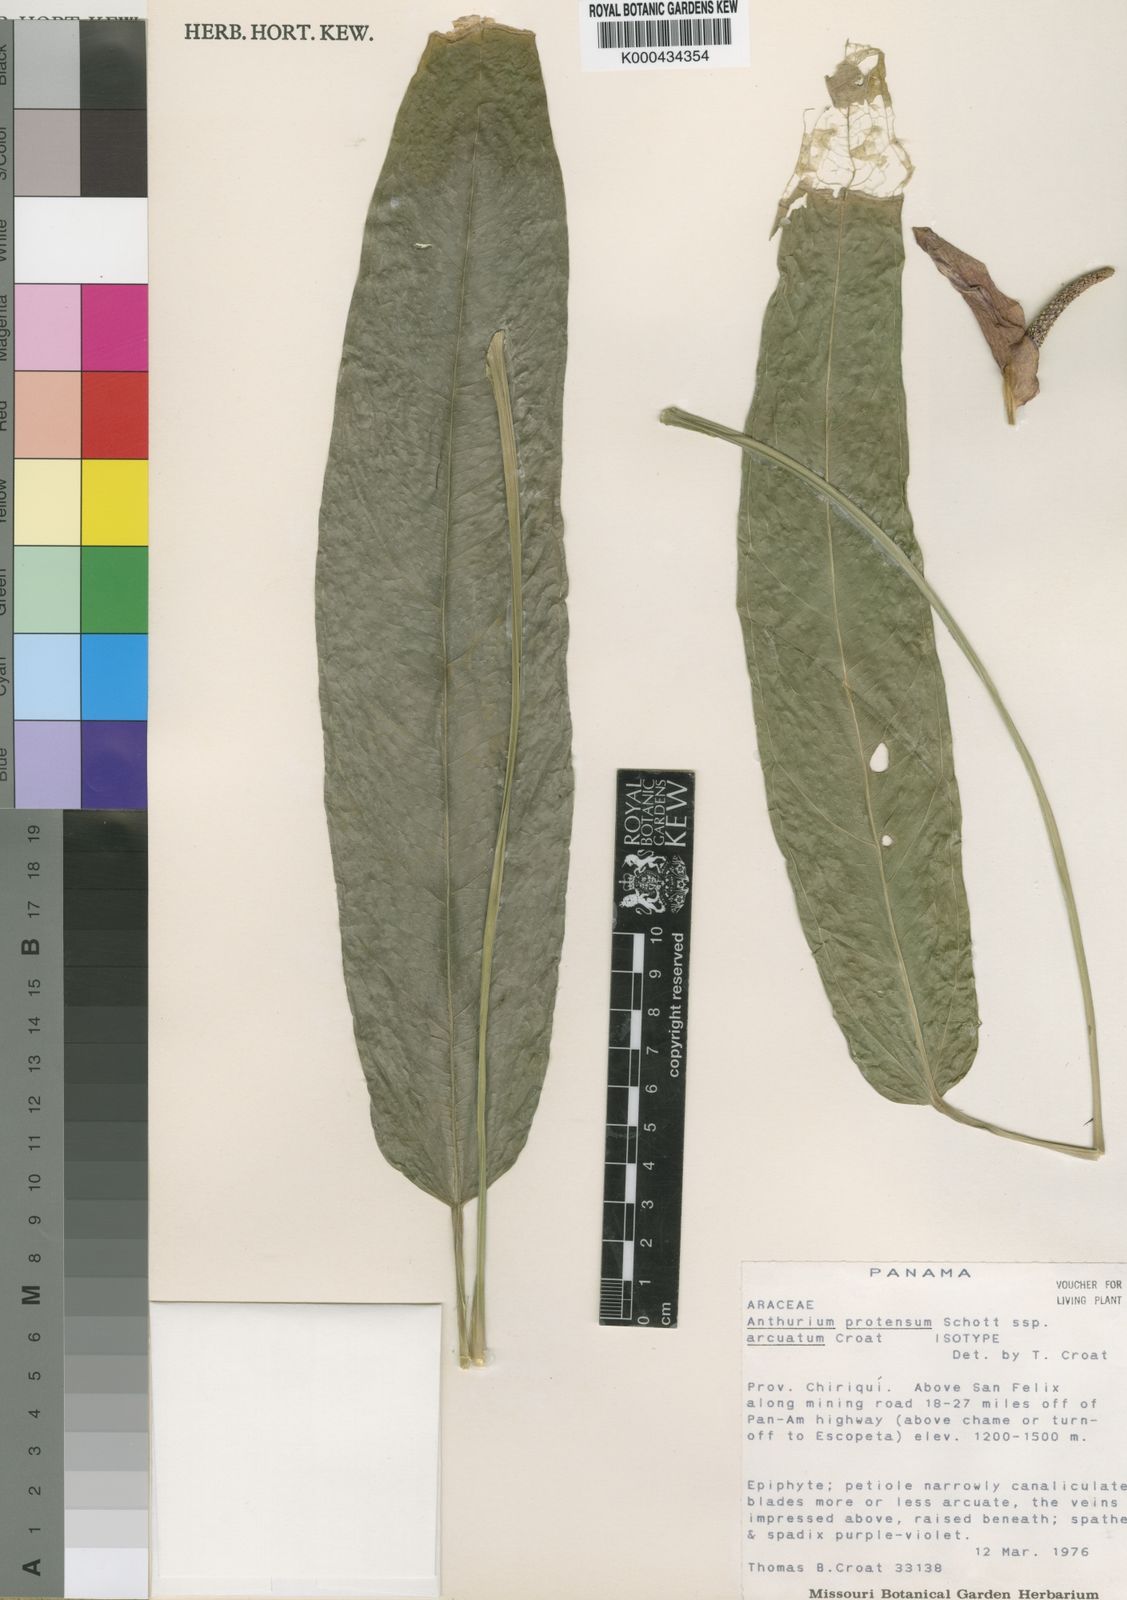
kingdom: Plantae
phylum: Tracheophyta
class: Liliopsida
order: Alismatales
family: Araceae
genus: Anthurium
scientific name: Anthurium arcuatum
